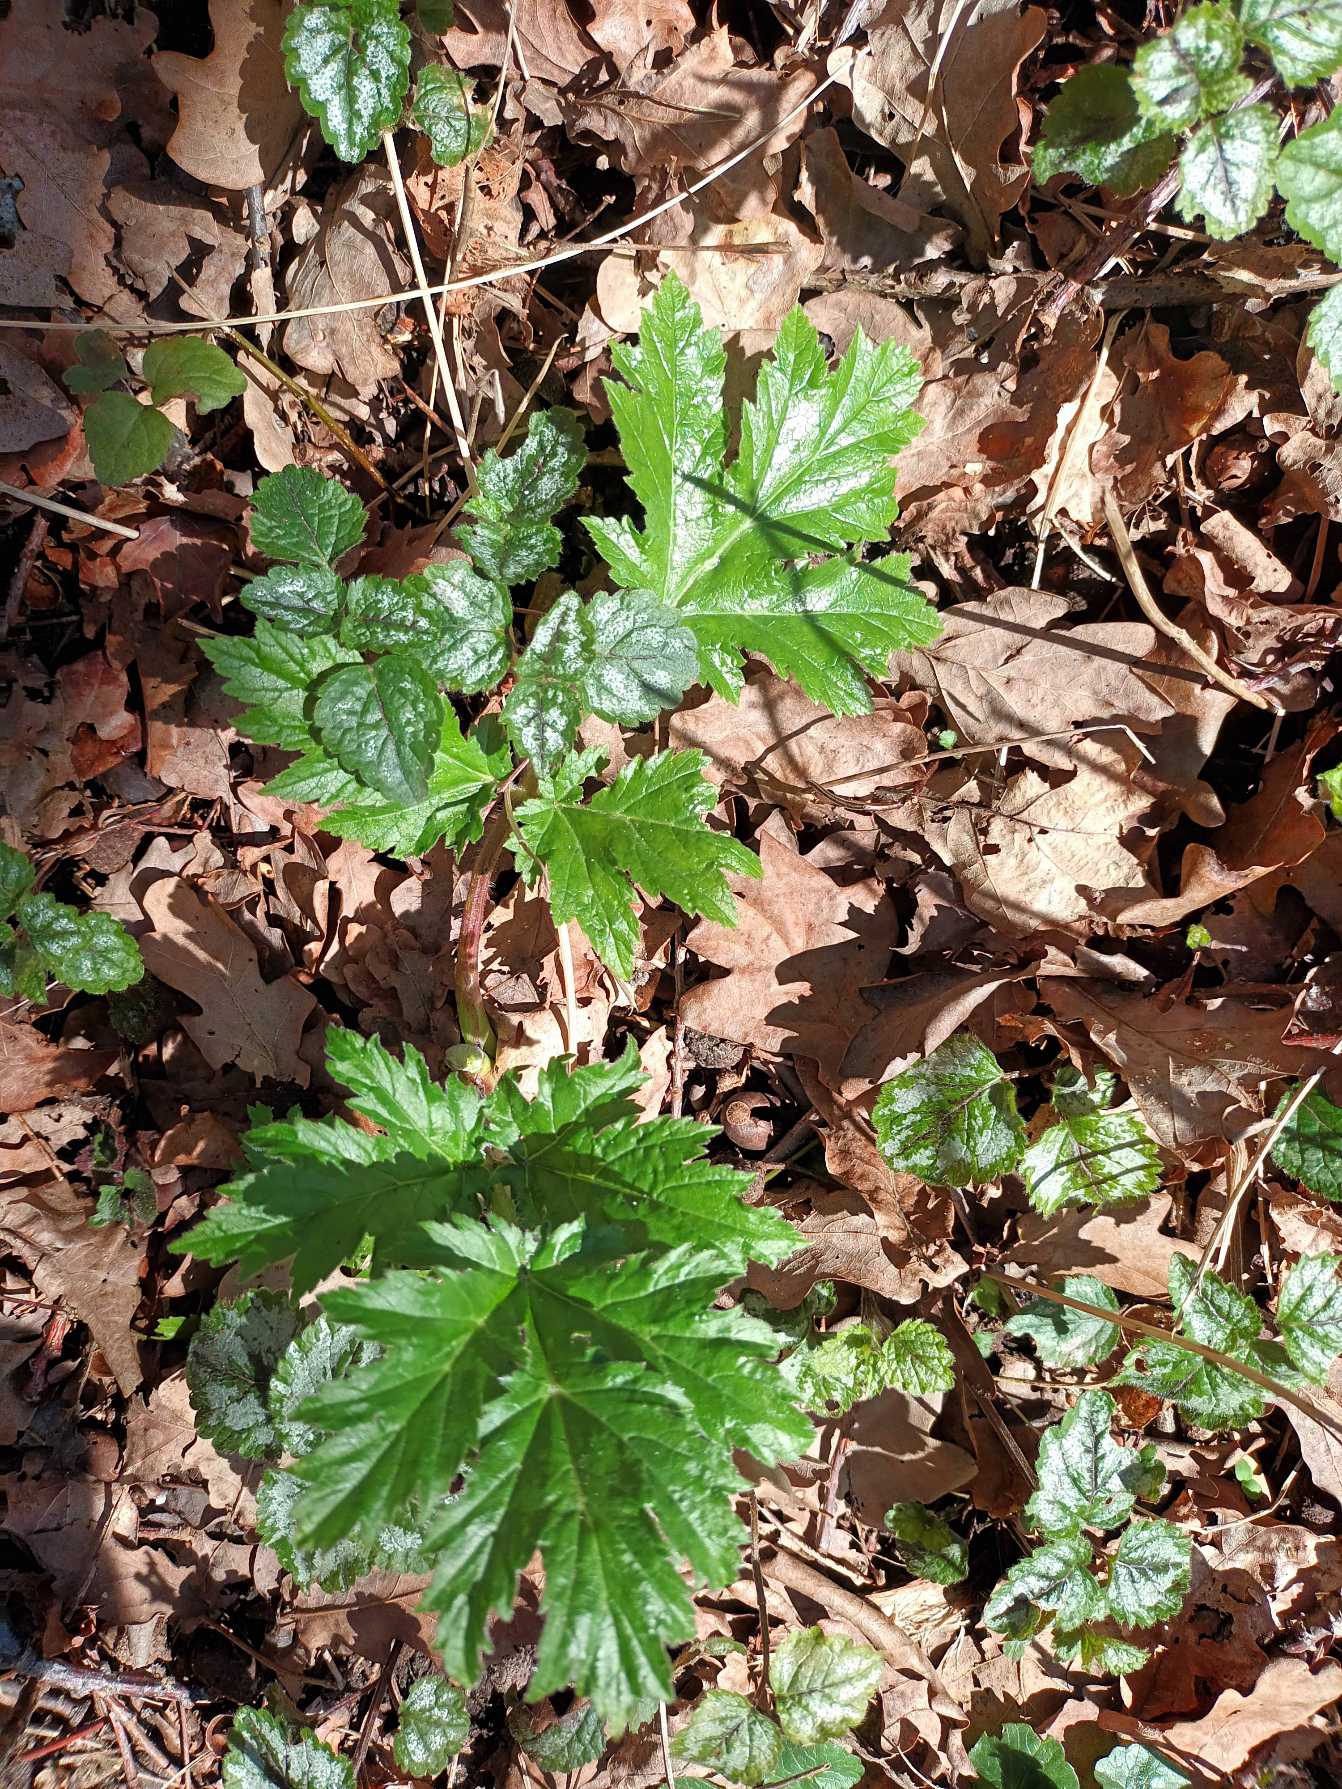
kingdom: Plantae
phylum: Tracheophyta
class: Magnoliopsida
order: Apiales
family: Apiaceae
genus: Heracleum
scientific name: Heracleum mantegazzianum
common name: Kæmpe-bjørneklo
